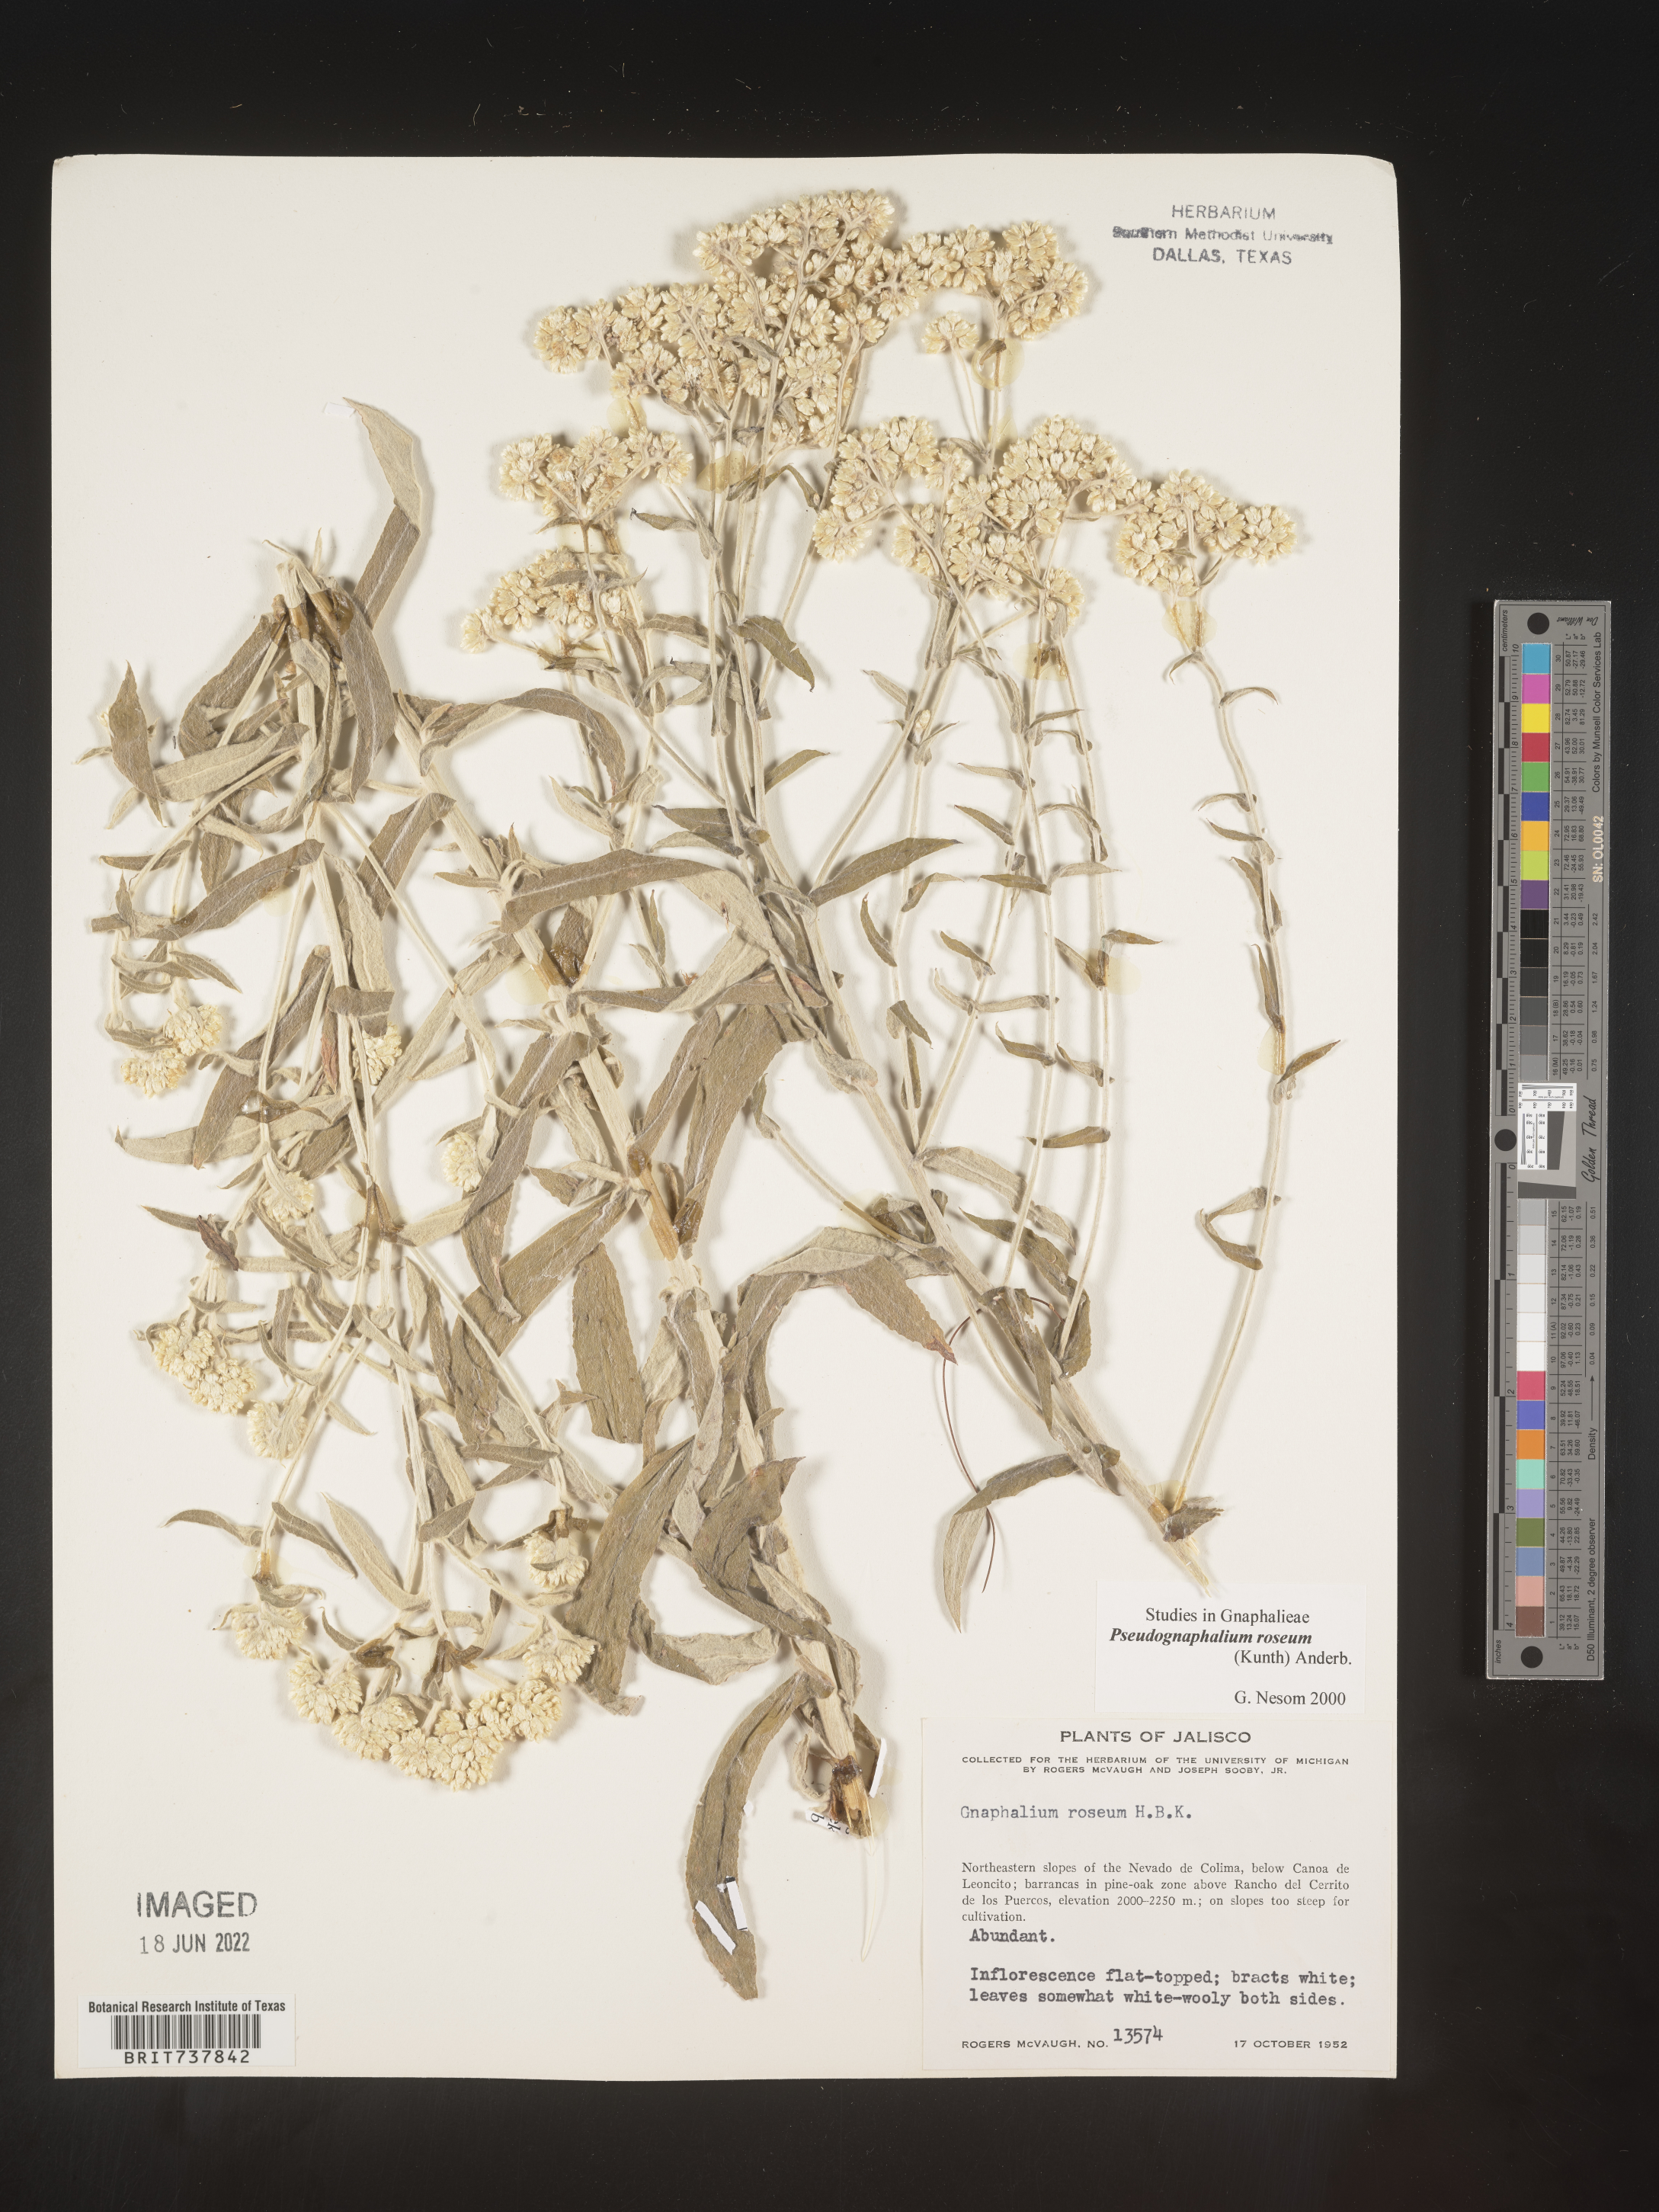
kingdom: Plantae
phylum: Tracheophyta
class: Magnoliopsida
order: Asterales
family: Asteraceae
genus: Pseudognaphalium
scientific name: Pseudognaphalium roseum
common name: Rosy cudweed
